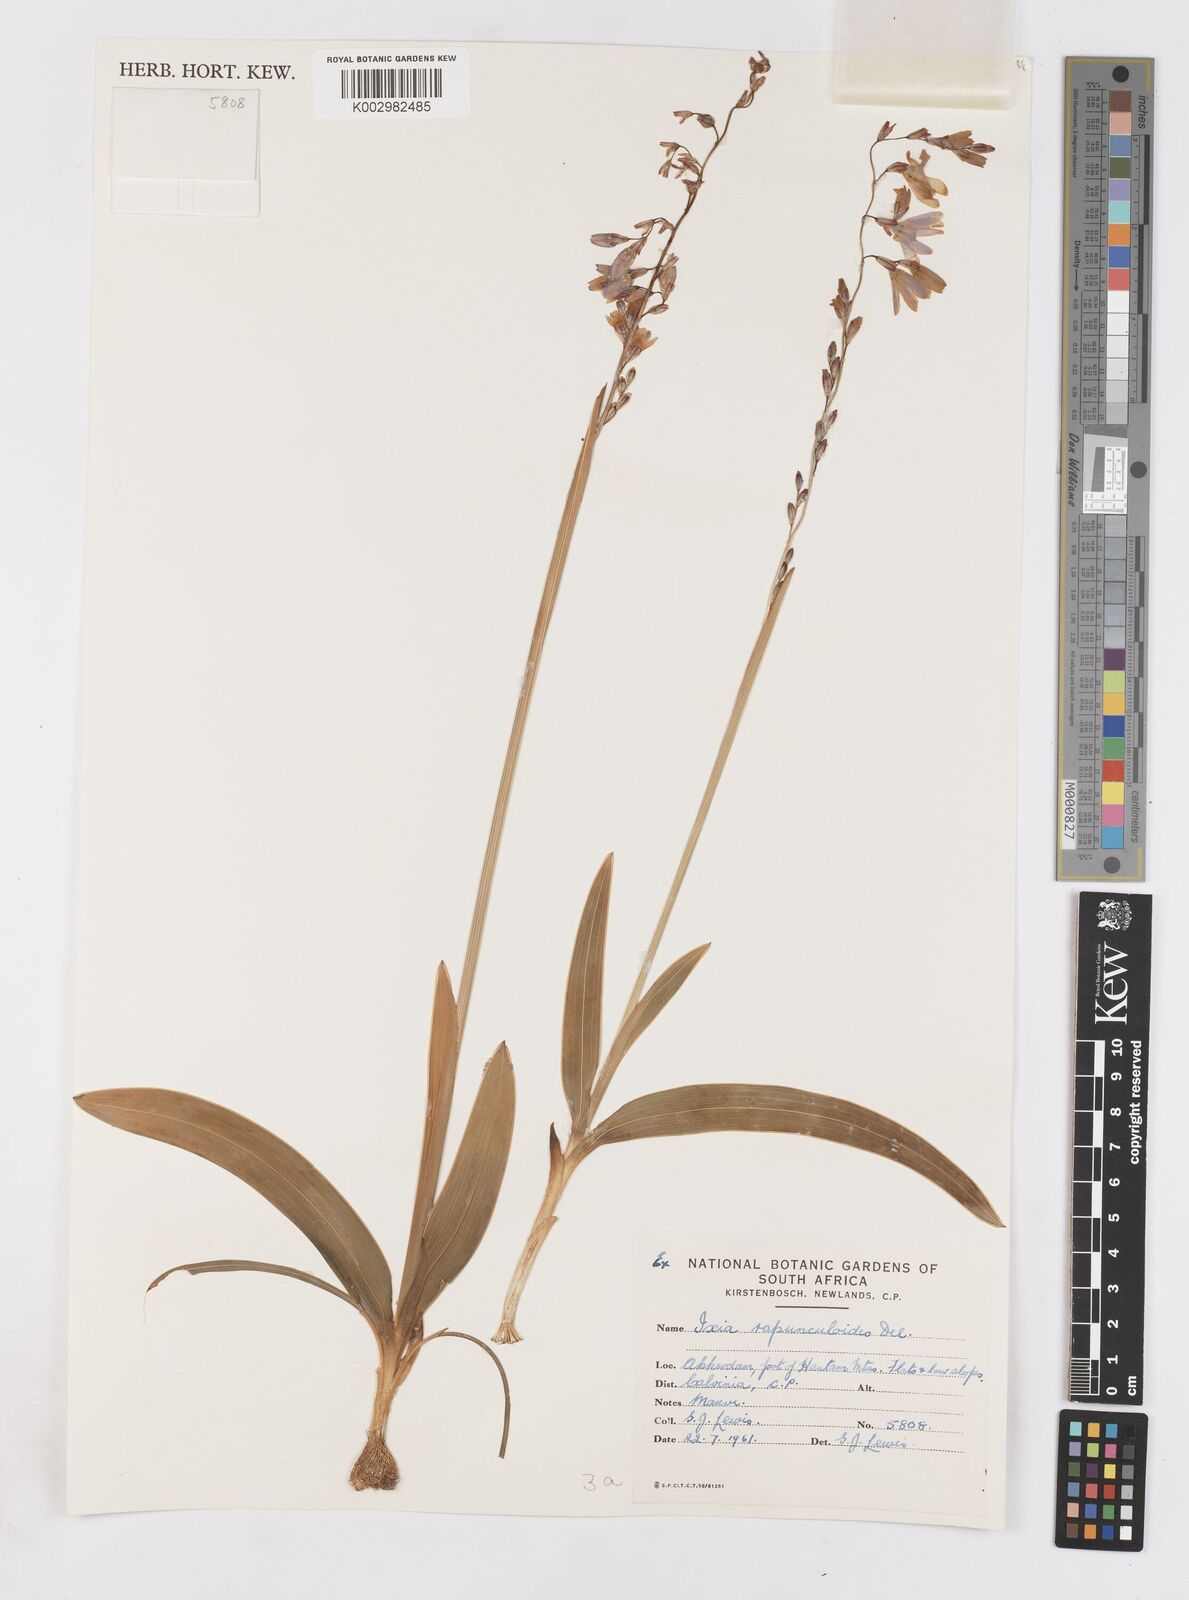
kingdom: Plantae
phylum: Tracheophyta
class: Liliopsida
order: Asparagales
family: Iridaceae
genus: Ixia
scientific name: Ixia rapunculoides
